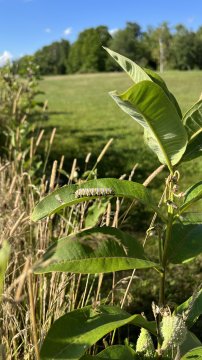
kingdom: Animalia
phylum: Arthropoda
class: Insecta
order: Lepidoptera
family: Nymphalidae
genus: Danaus
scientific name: Danaus plexippus
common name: Monarch
